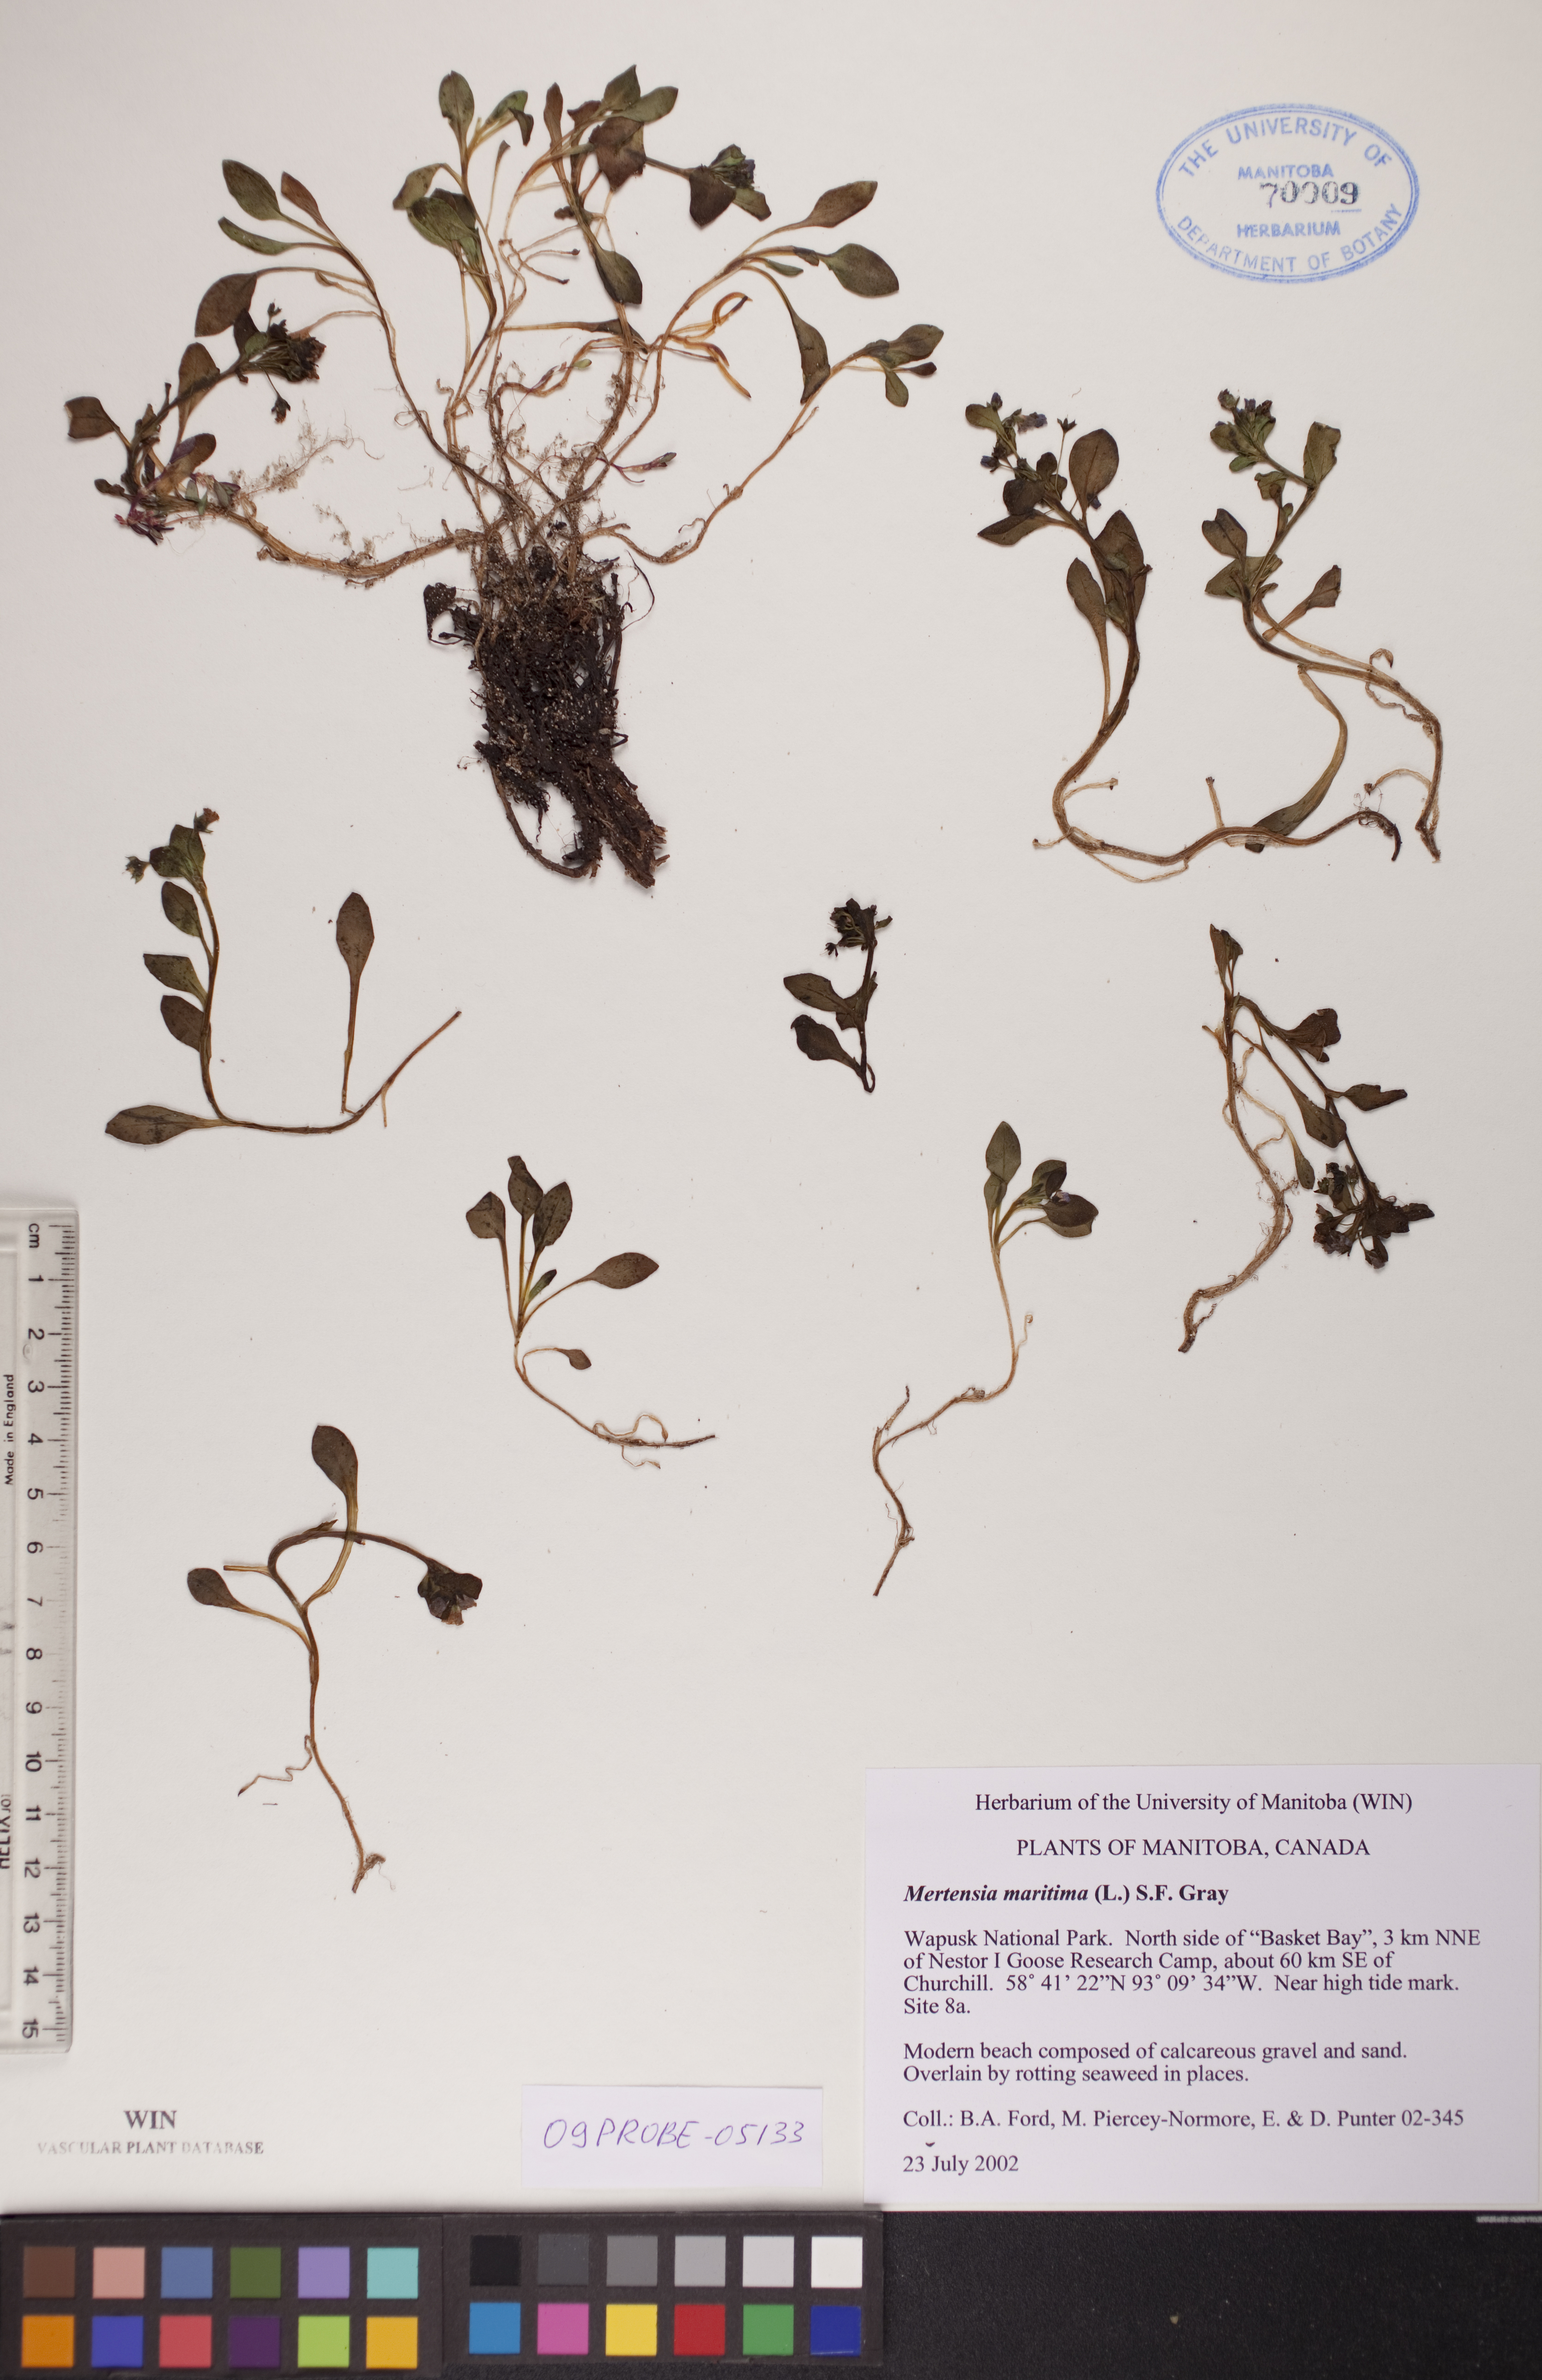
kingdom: Plantae
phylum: Tracheophyta
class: Magnoliopsida
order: Boraginales
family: Boraginaceae
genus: Mertensia
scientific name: Mertensia maritima
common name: Oysterplant
